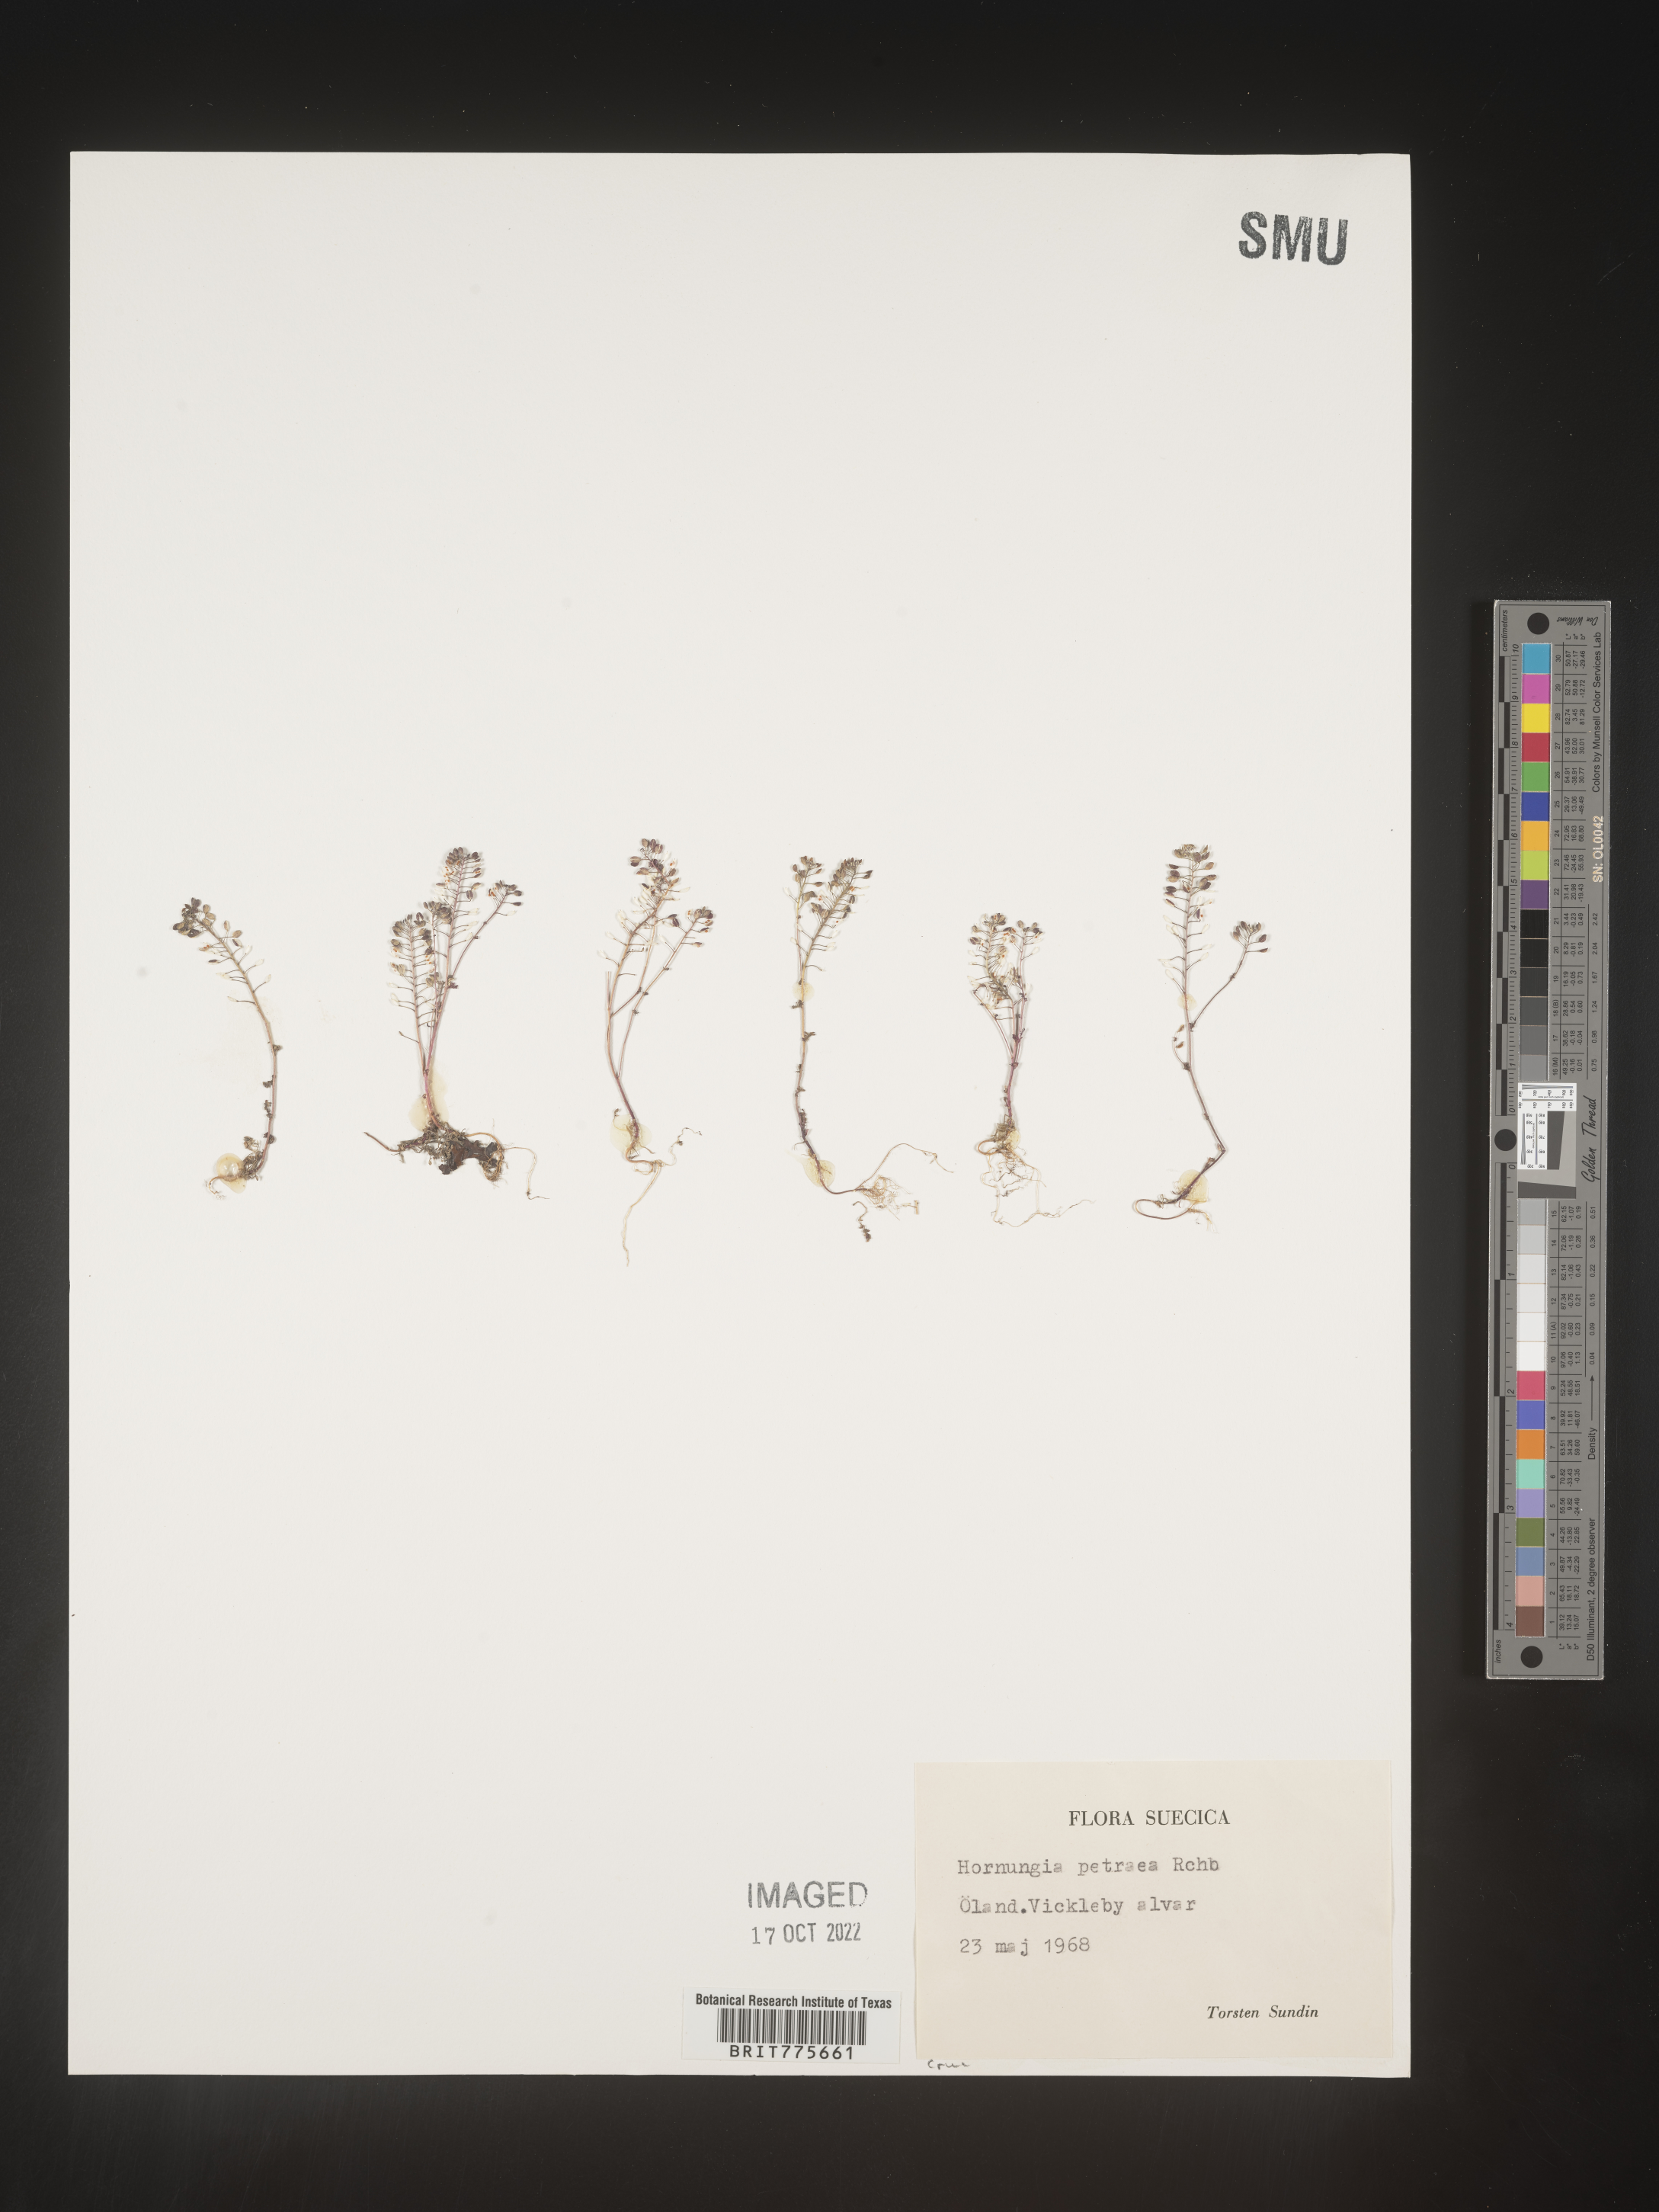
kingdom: Plantae
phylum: Tracheophyta
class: Magnoliopsida
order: Brassicales
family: Brassicaceae
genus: Hornungia
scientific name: Hornungia
